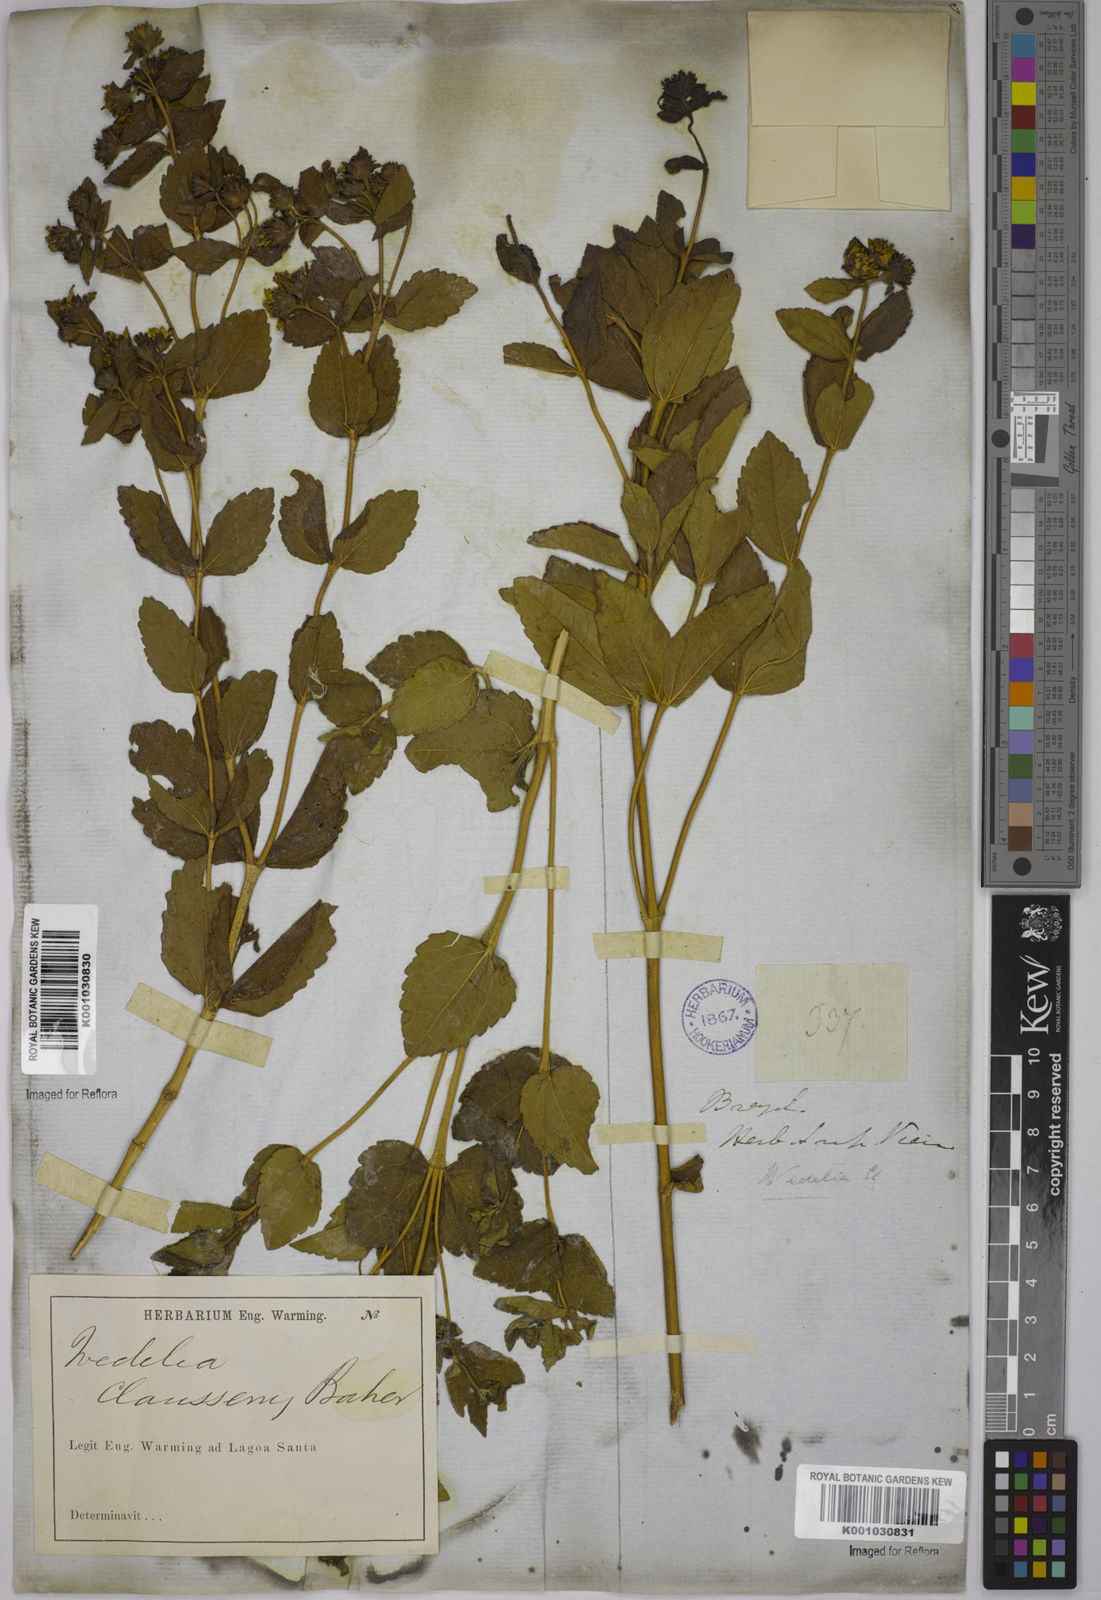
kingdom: Plantae
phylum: Tracheophyta
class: Magnoliopsida
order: Asterales
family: Asteraceae
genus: Wedelia
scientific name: Wedelia puberula
